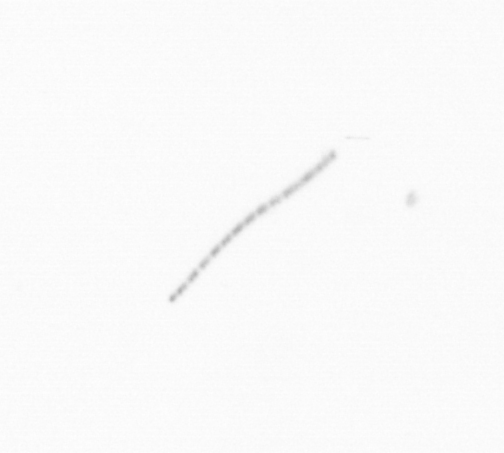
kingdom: Chromista
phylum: Ochrophyta
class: Bacillariophyceae
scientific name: Bacillariophyceae
